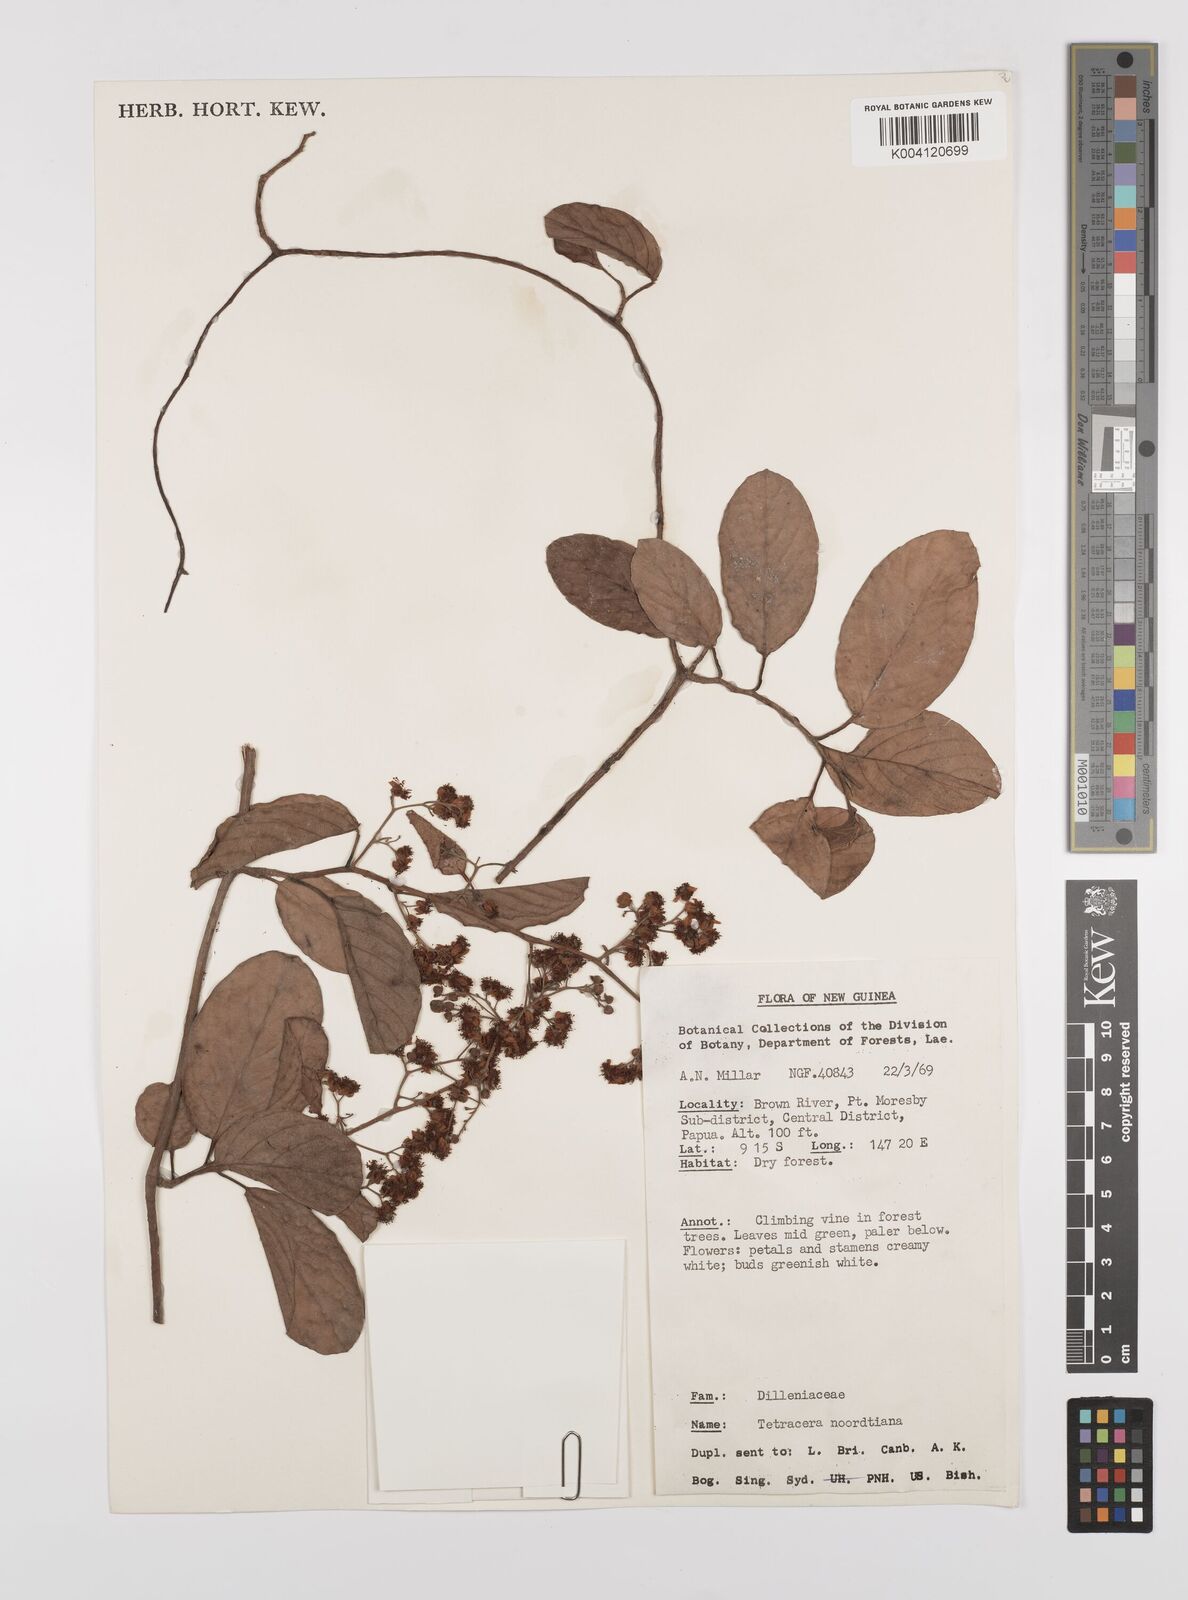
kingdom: Plantae
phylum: Tracheophyta
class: Magnoliopsida
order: Dilleniales
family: Dilleniaceae
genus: Tetracera
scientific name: Tetracera nordtiana
